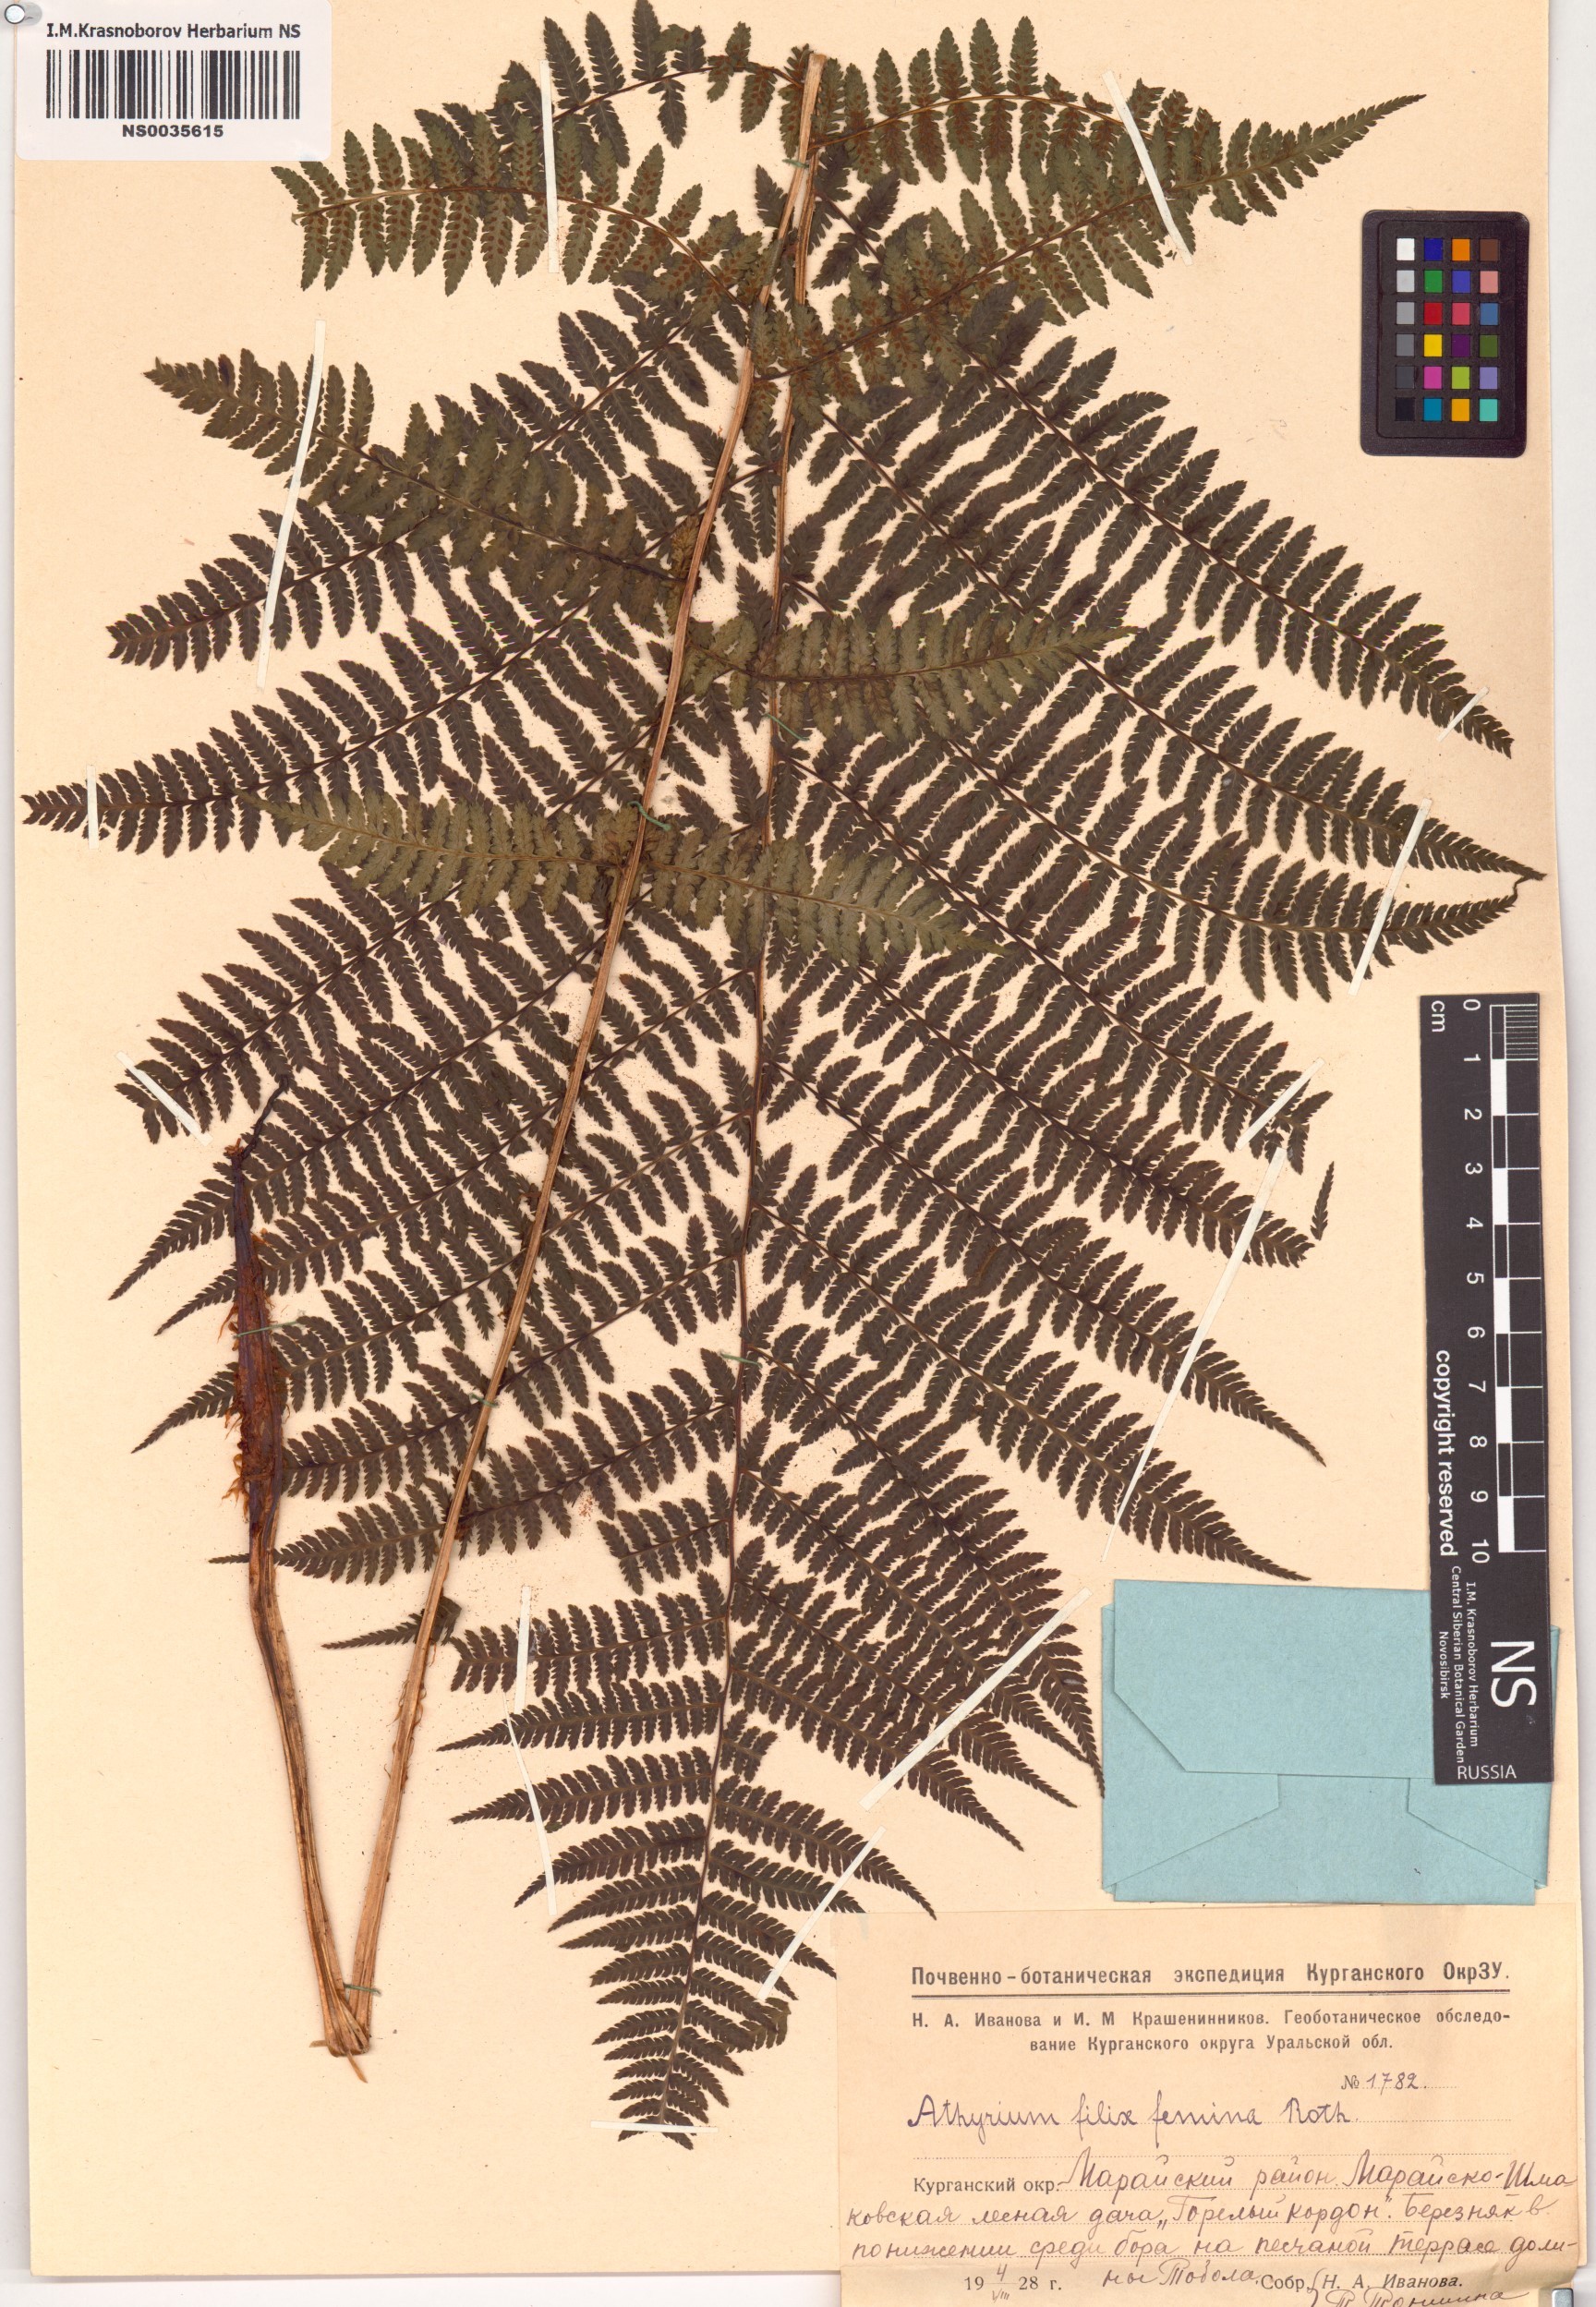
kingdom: Plantae
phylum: Tracheophyta
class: Polypodiopsida
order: Polypodiales
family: Athyriaceae
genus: Athyrium
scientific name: Athyrium filix-femina
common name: Lady fern
